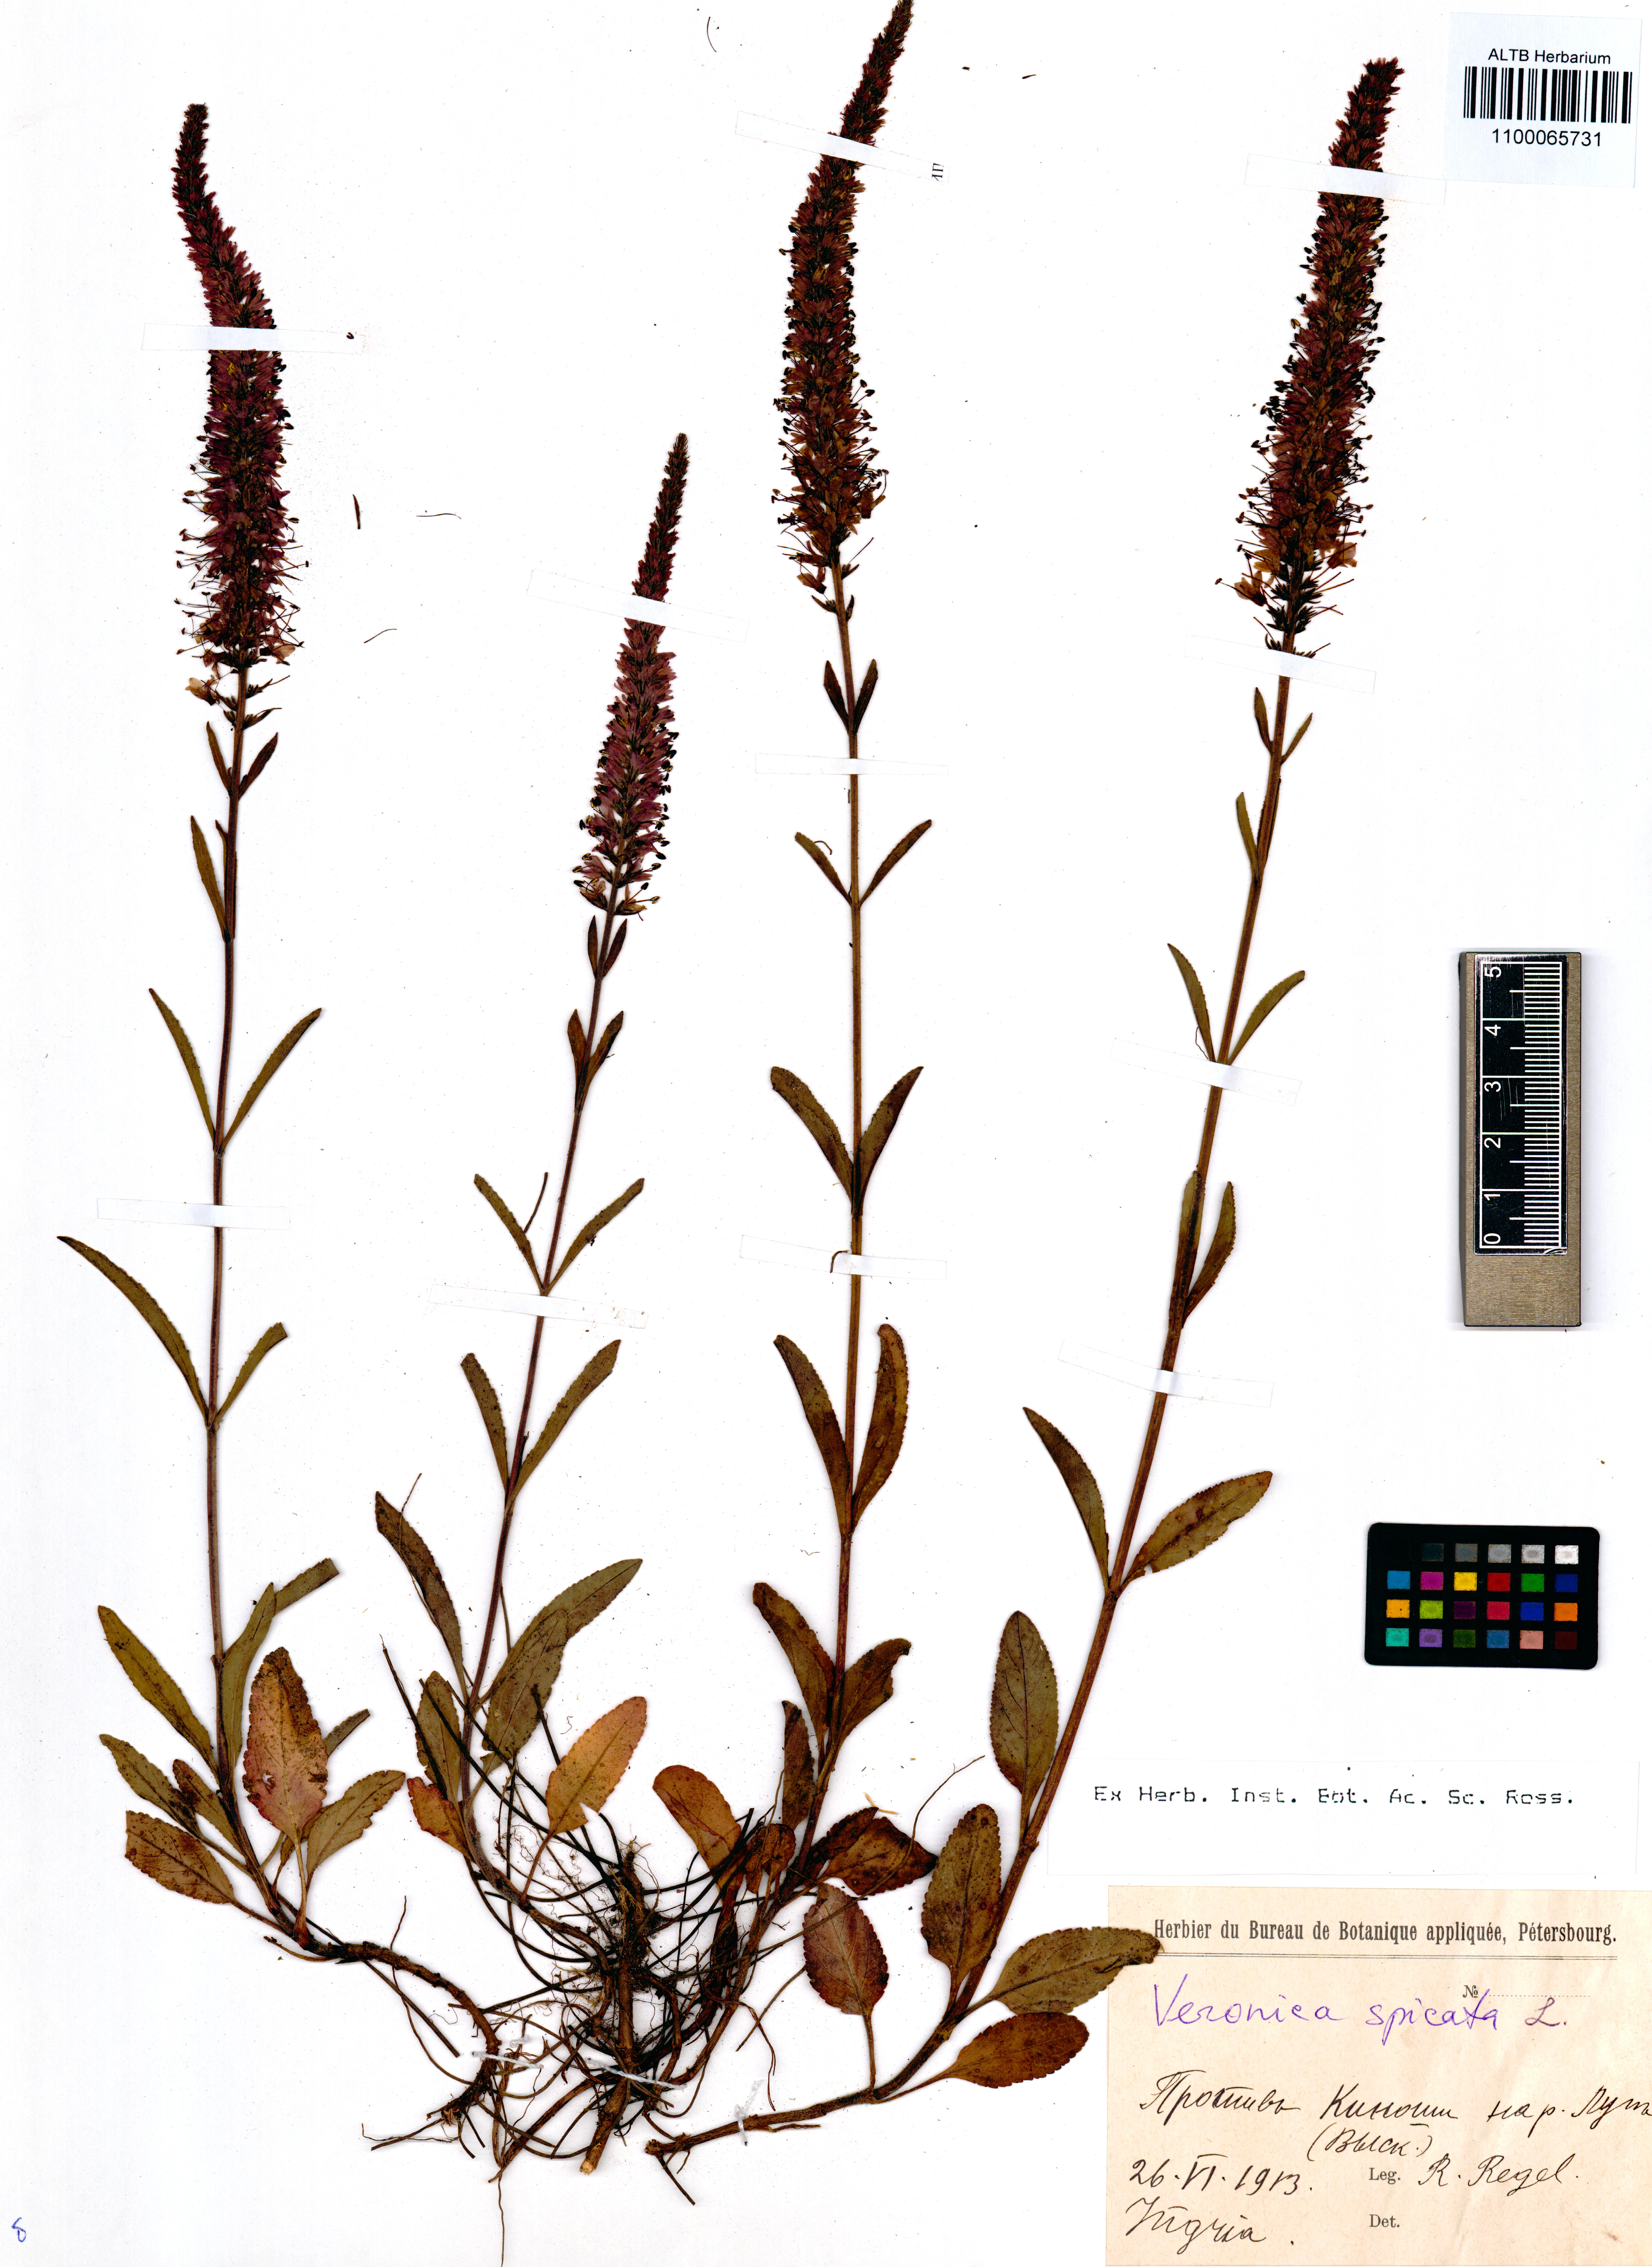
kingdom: Plantae
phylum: Tracheophyta
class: Magnoliopsida
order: Lamiales
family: Plantaginaceae
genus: Veronica
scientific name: Veronica spicata
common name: Spiked speedwell
